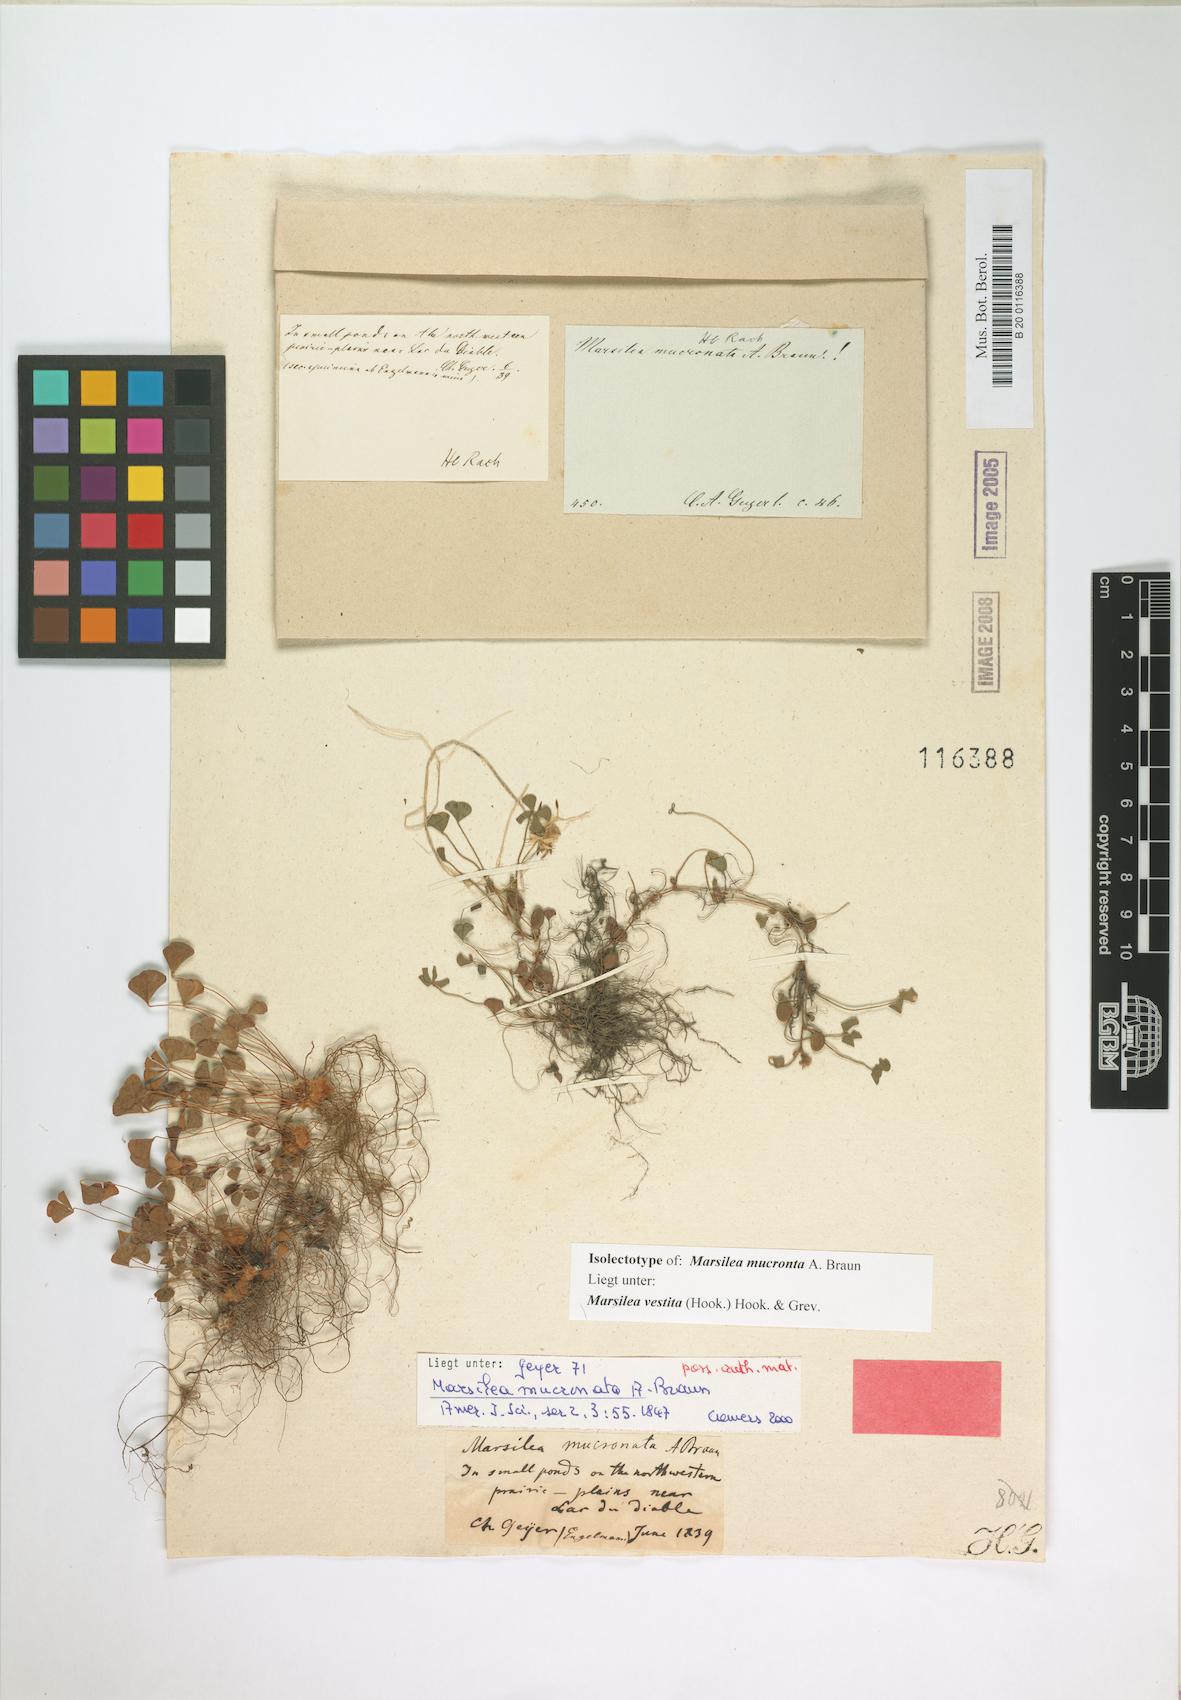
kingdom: Plantae
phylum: Tracheophyta
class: Polypodiopsida
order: Salviniales
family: Marsileaceae
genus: Marsilea
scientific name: Marsilea vestita
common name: Hooked-pepperwort
